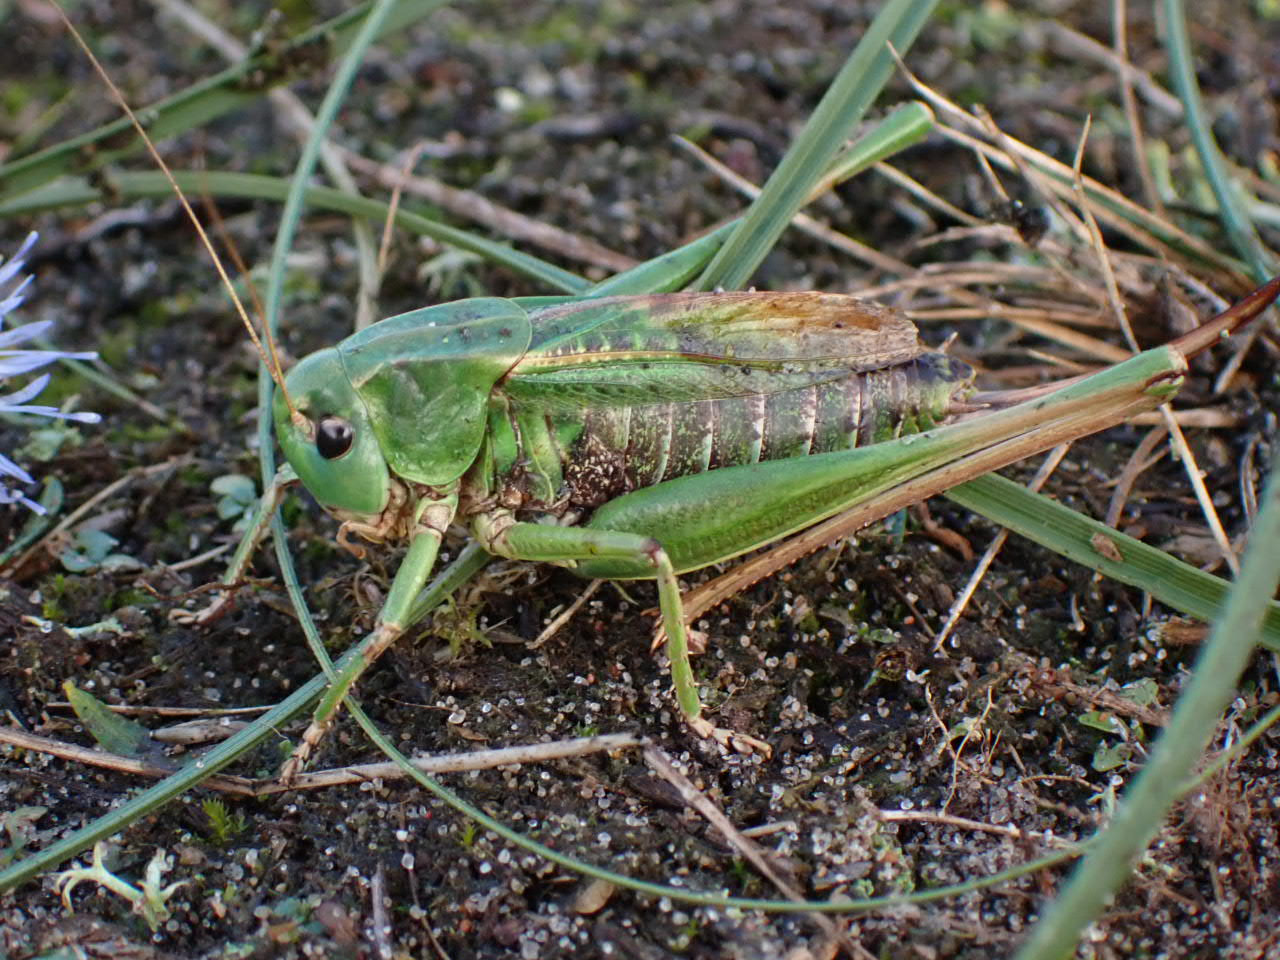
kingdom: Animalia
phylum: Arthropoda
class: Insecta
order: Orthoptera
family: Tettigoniidae
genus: Decticus
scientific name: Decticus verrucivorus
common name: Vortebider
